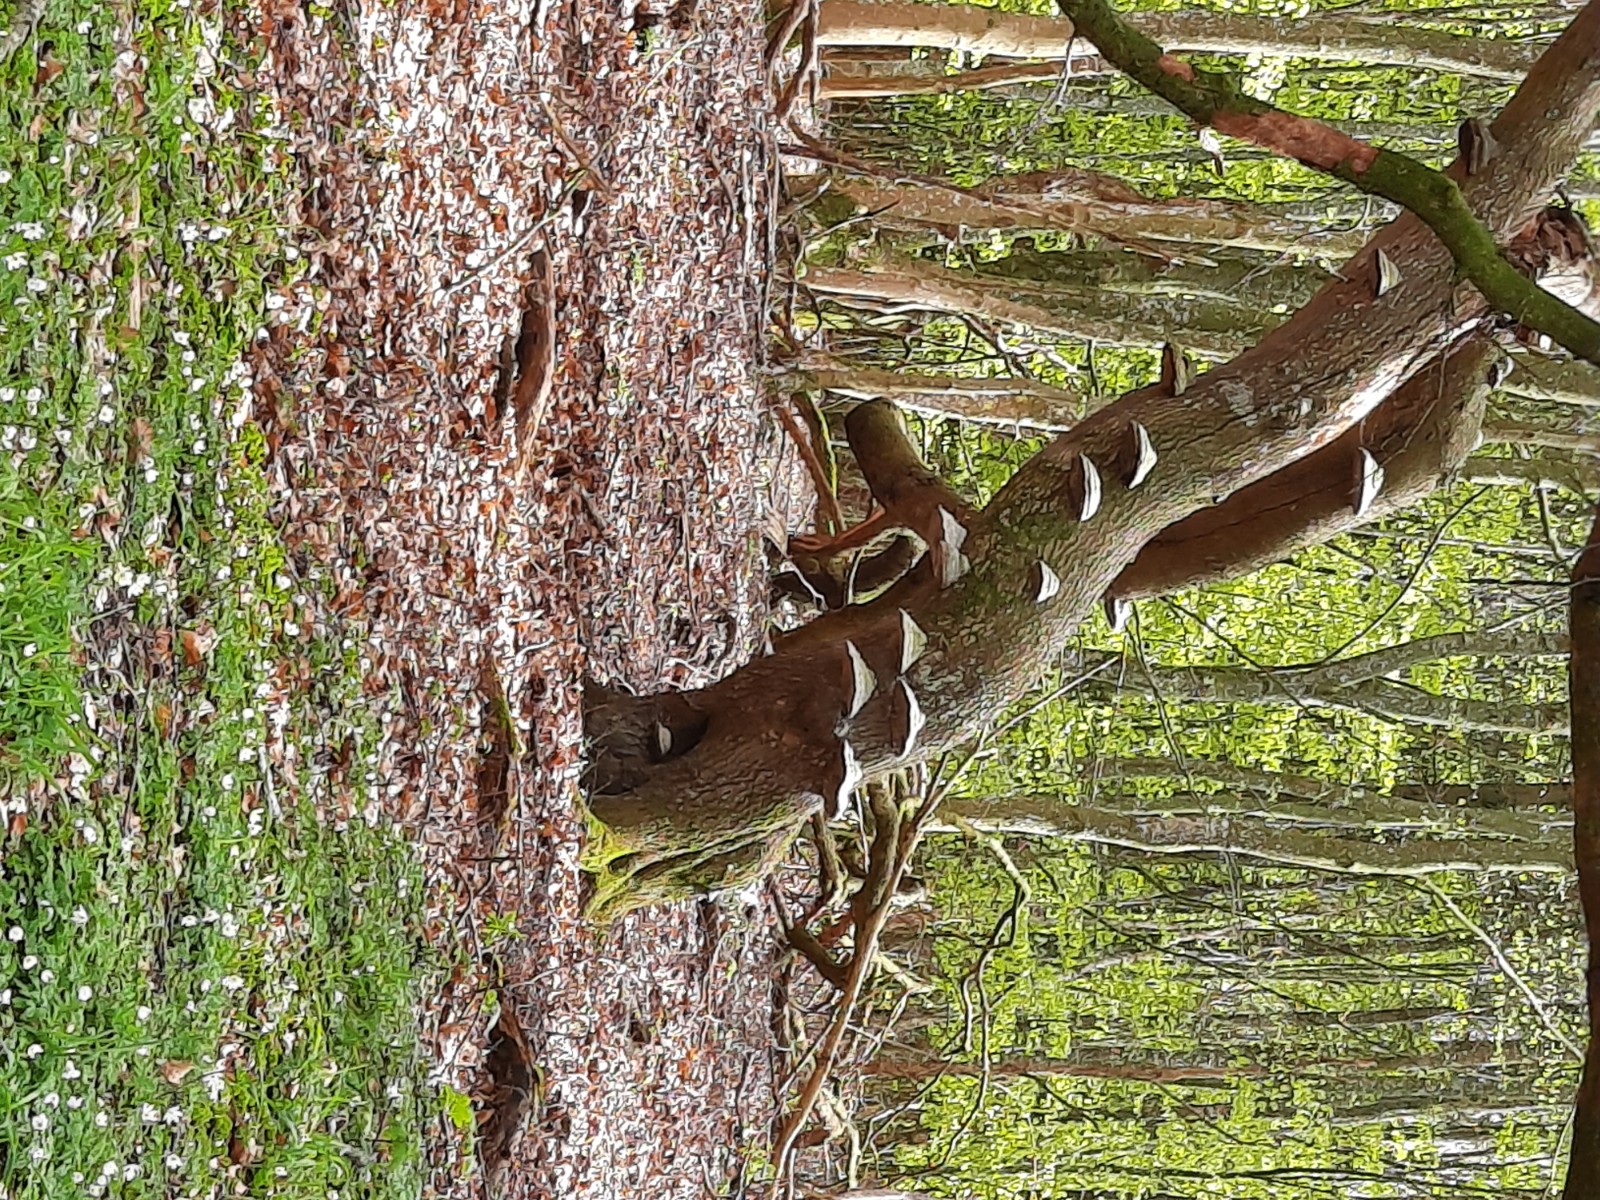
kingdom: Fungi
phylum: Basidiomycota
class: Agaricomycetes
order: Polyporales
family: Polyporaceae
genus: Fomes
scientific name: Fomes fomentarius
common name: tøndersvamp
